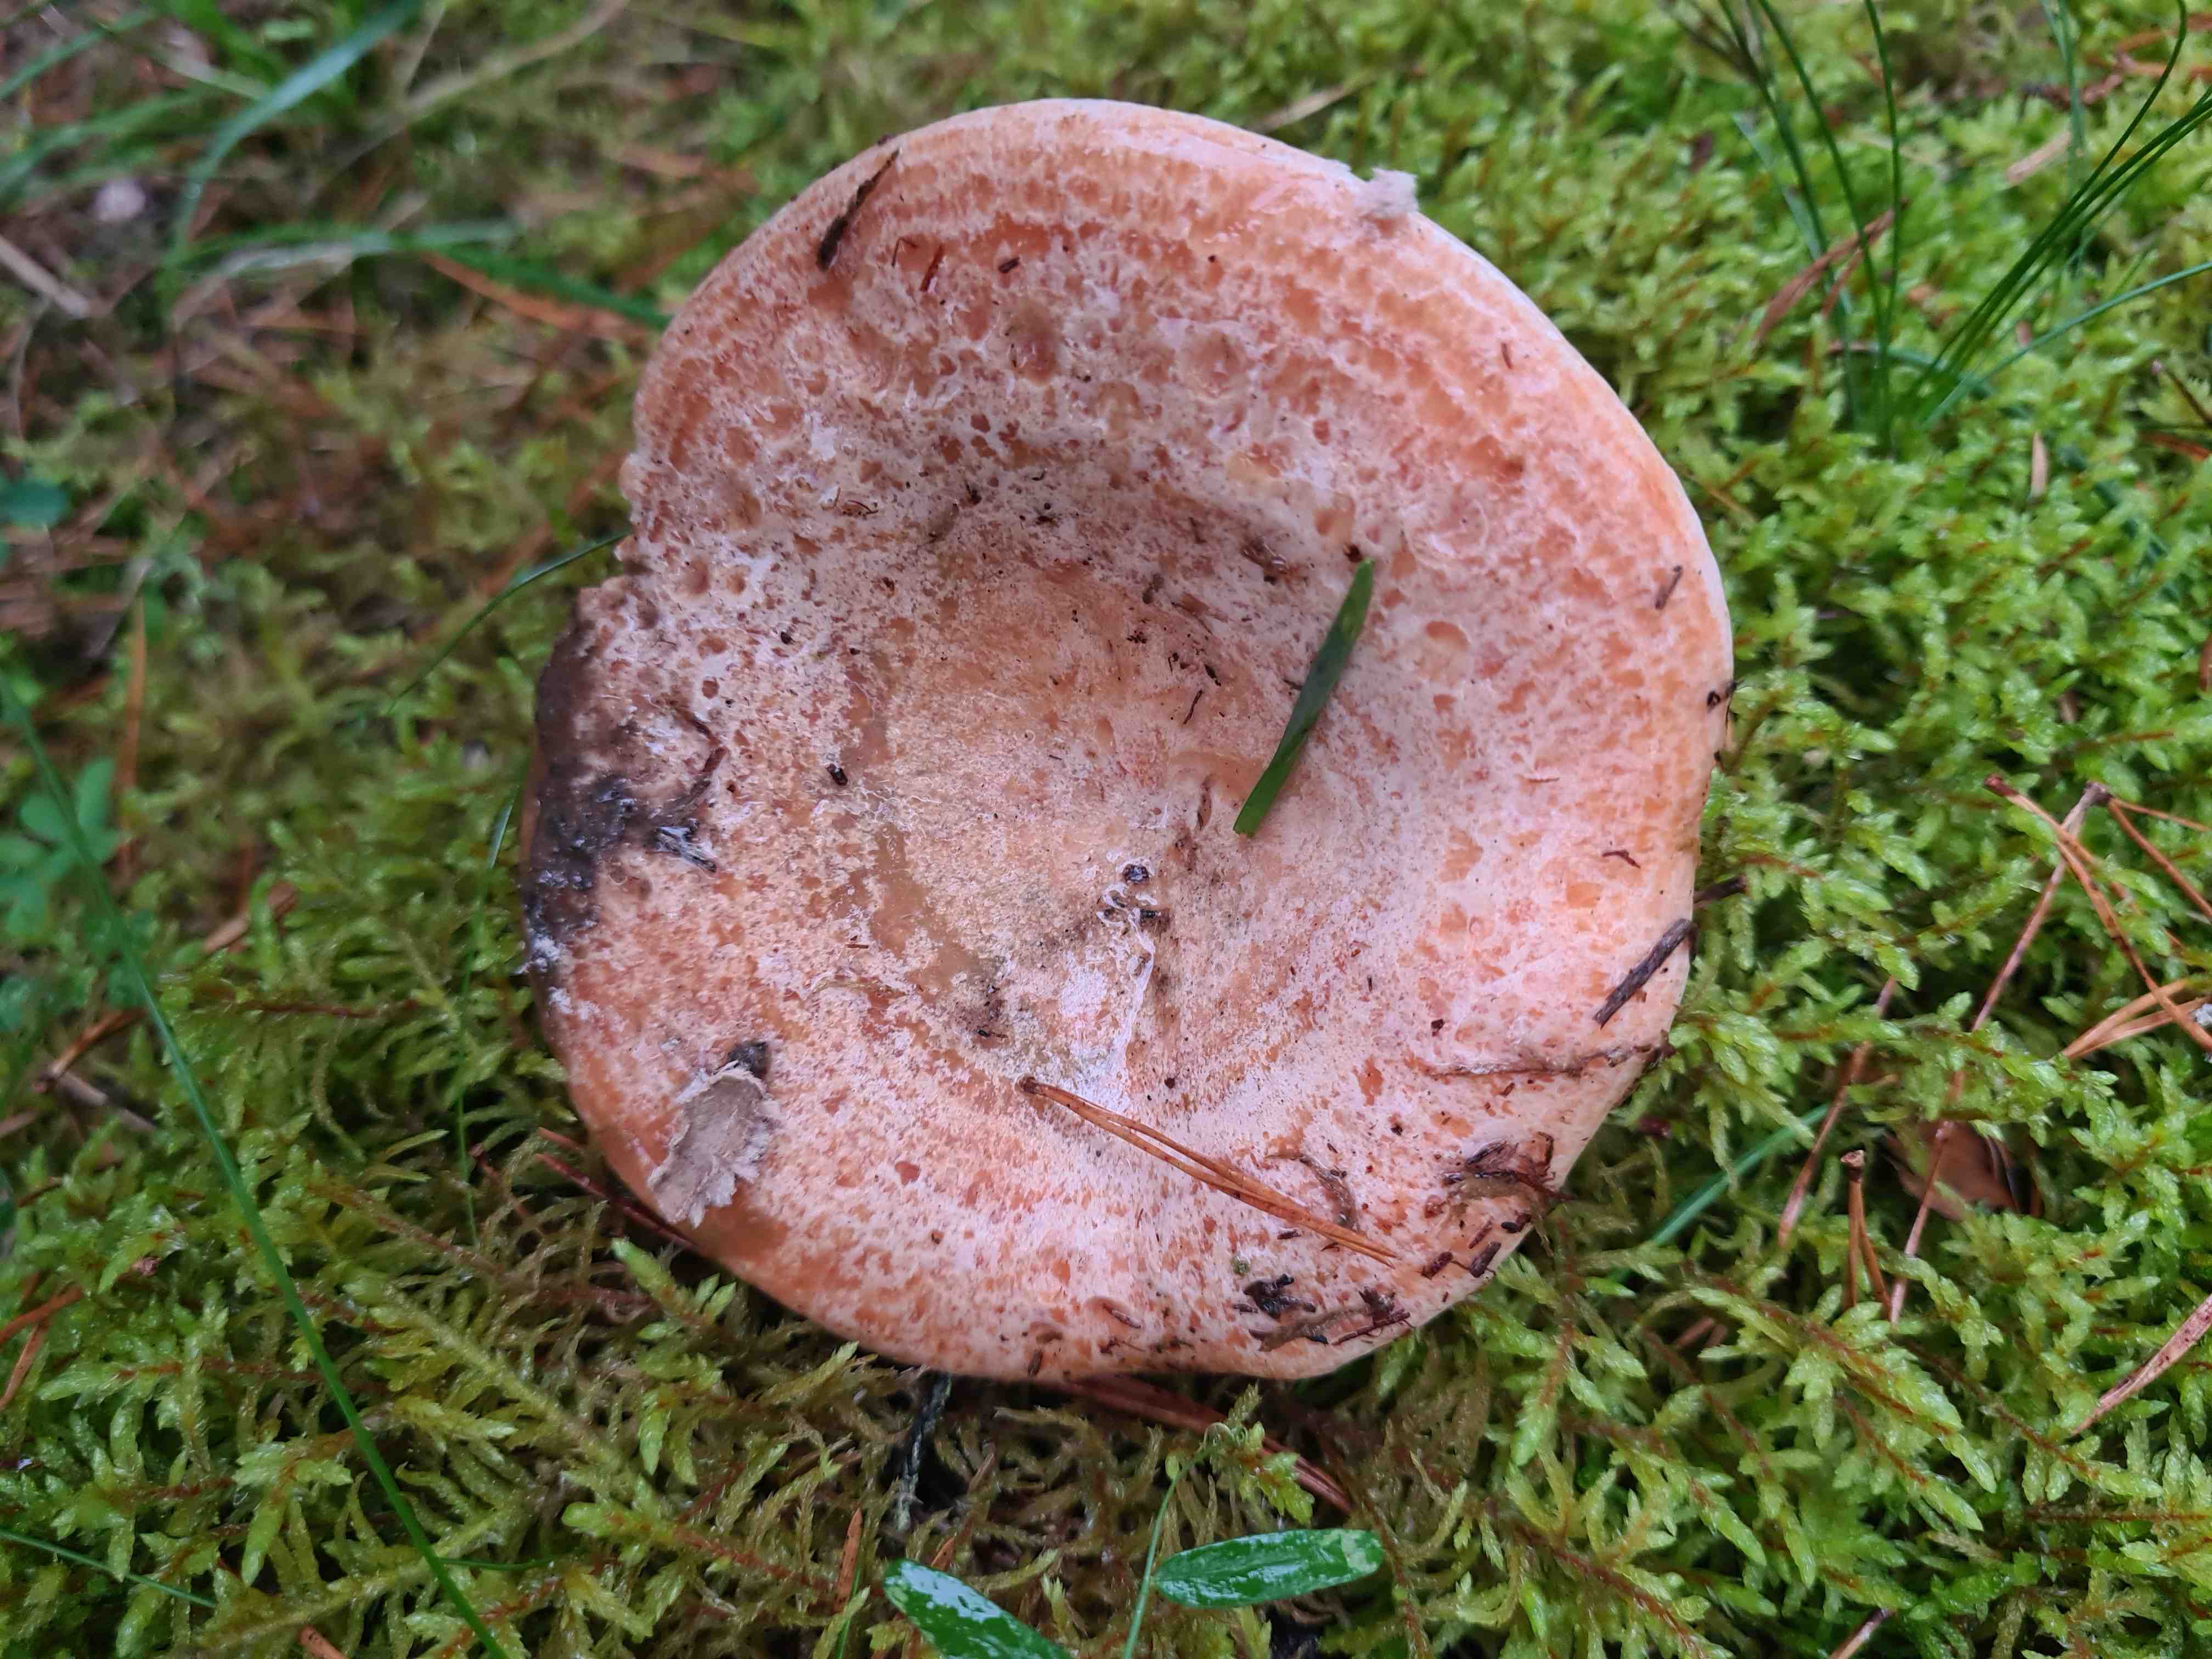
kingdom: Fungi
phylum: Basidiomycota
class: Agaricomycetes
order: Russulales
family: Russulaceae
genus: Lactarius
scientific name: Lactarius deliciosus
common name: velsmagende mælkehat
